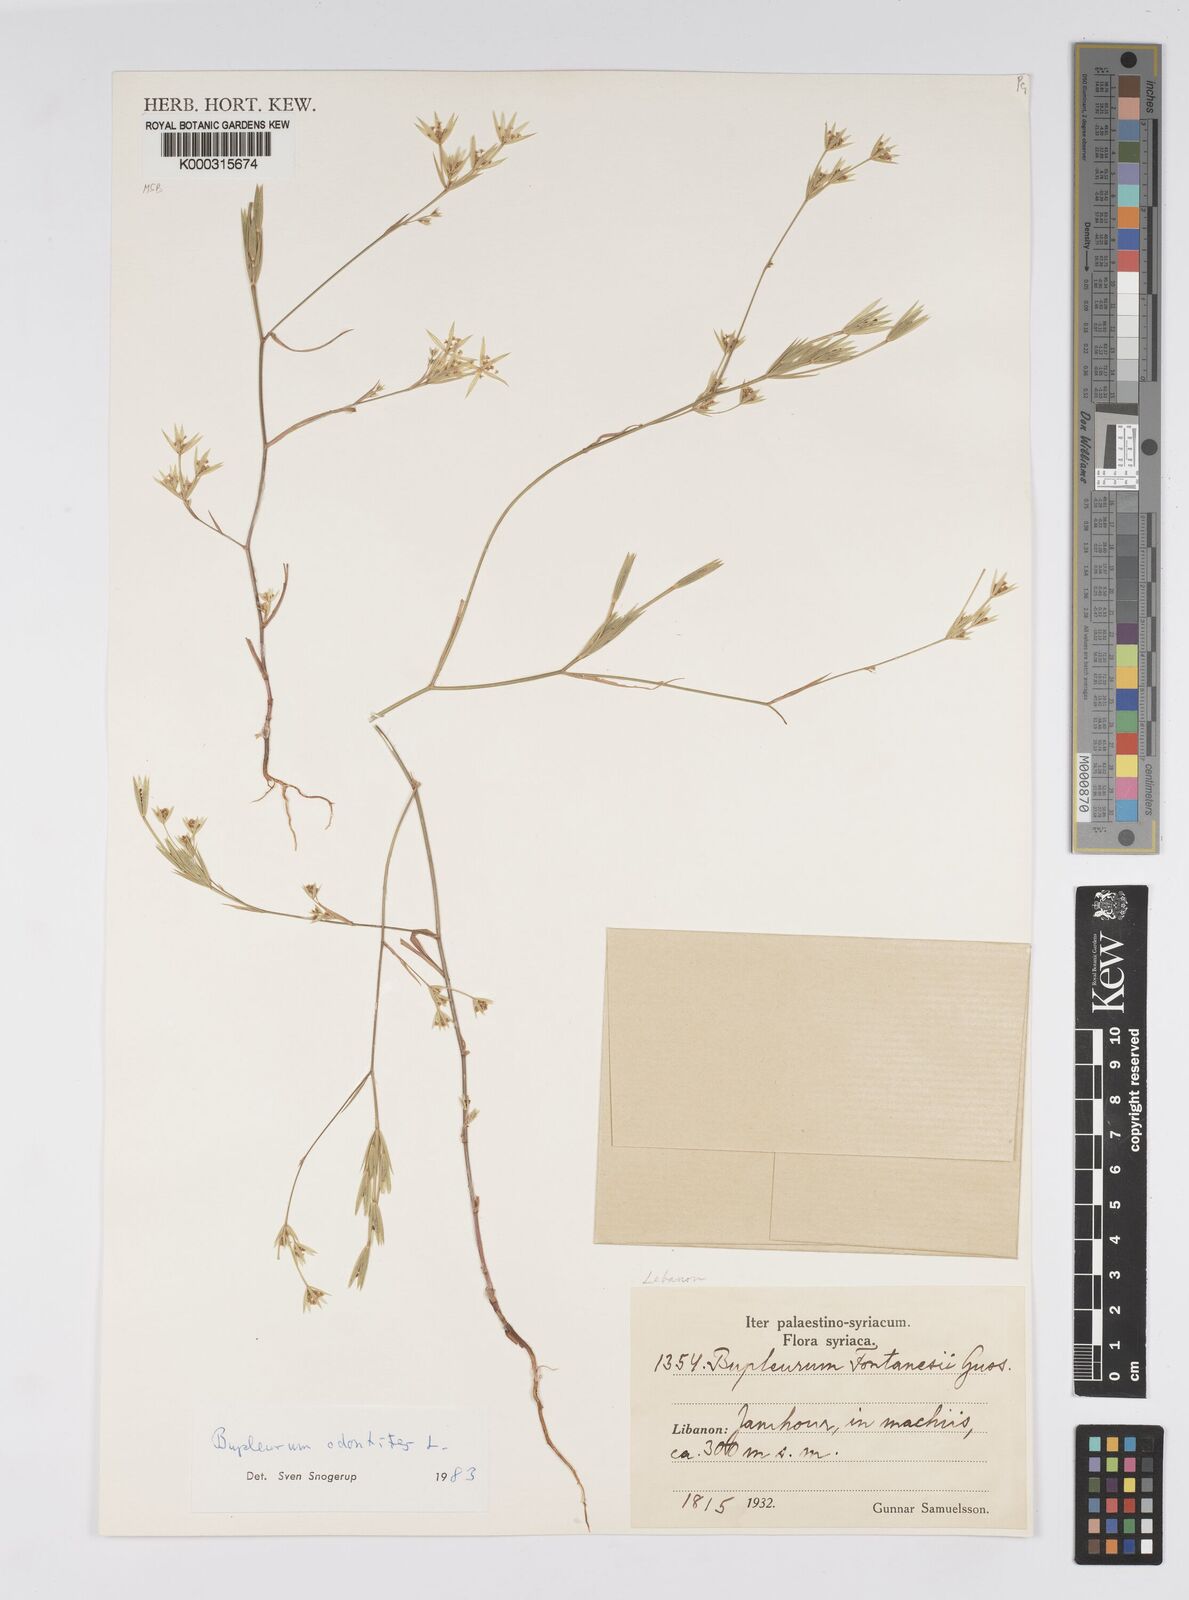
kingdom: Plantae
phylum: Tracheophyta
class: Magnoliopsida
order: Apiales
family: Apiaceae
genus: Bupleurum
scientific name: Bupleurum odontites
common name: Narrowleaf thorow wax
